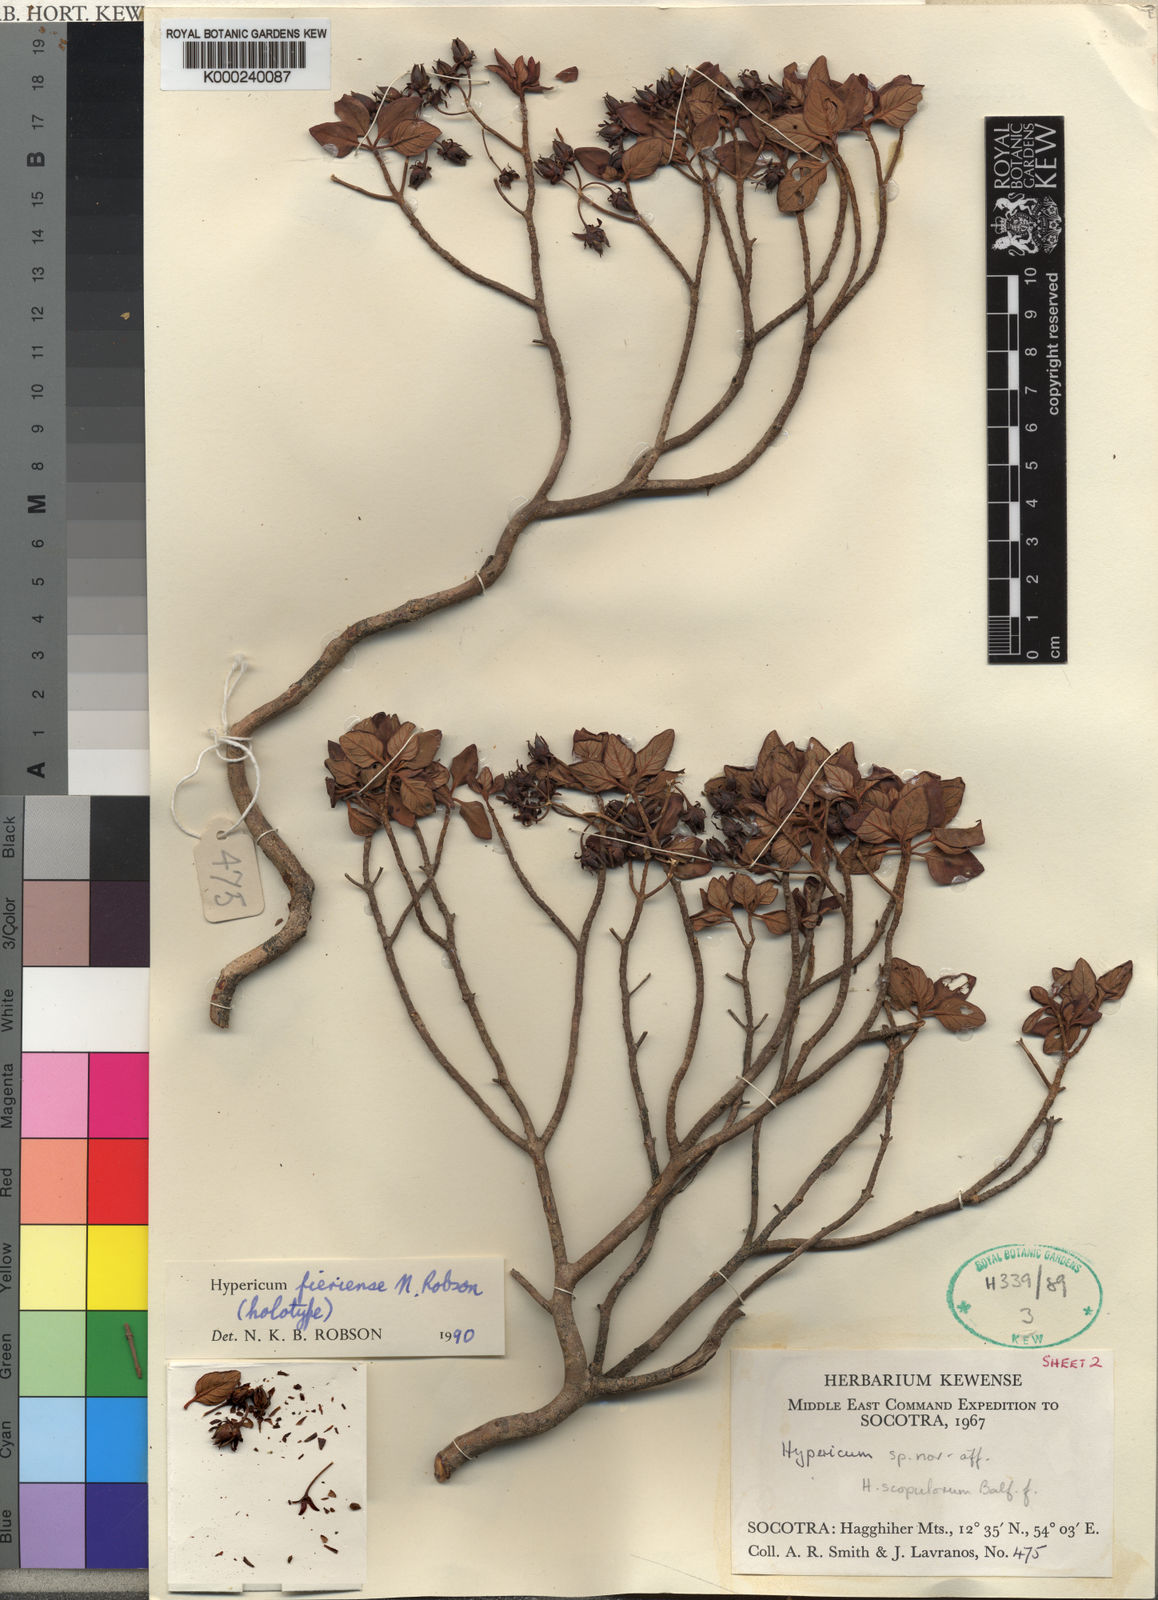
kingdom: Plantae
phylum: Tracheophyta
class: Magnoliopsida
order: Malpighiales
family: Hypericaceae
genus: Hypericum
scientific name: Hypericum fieriense
